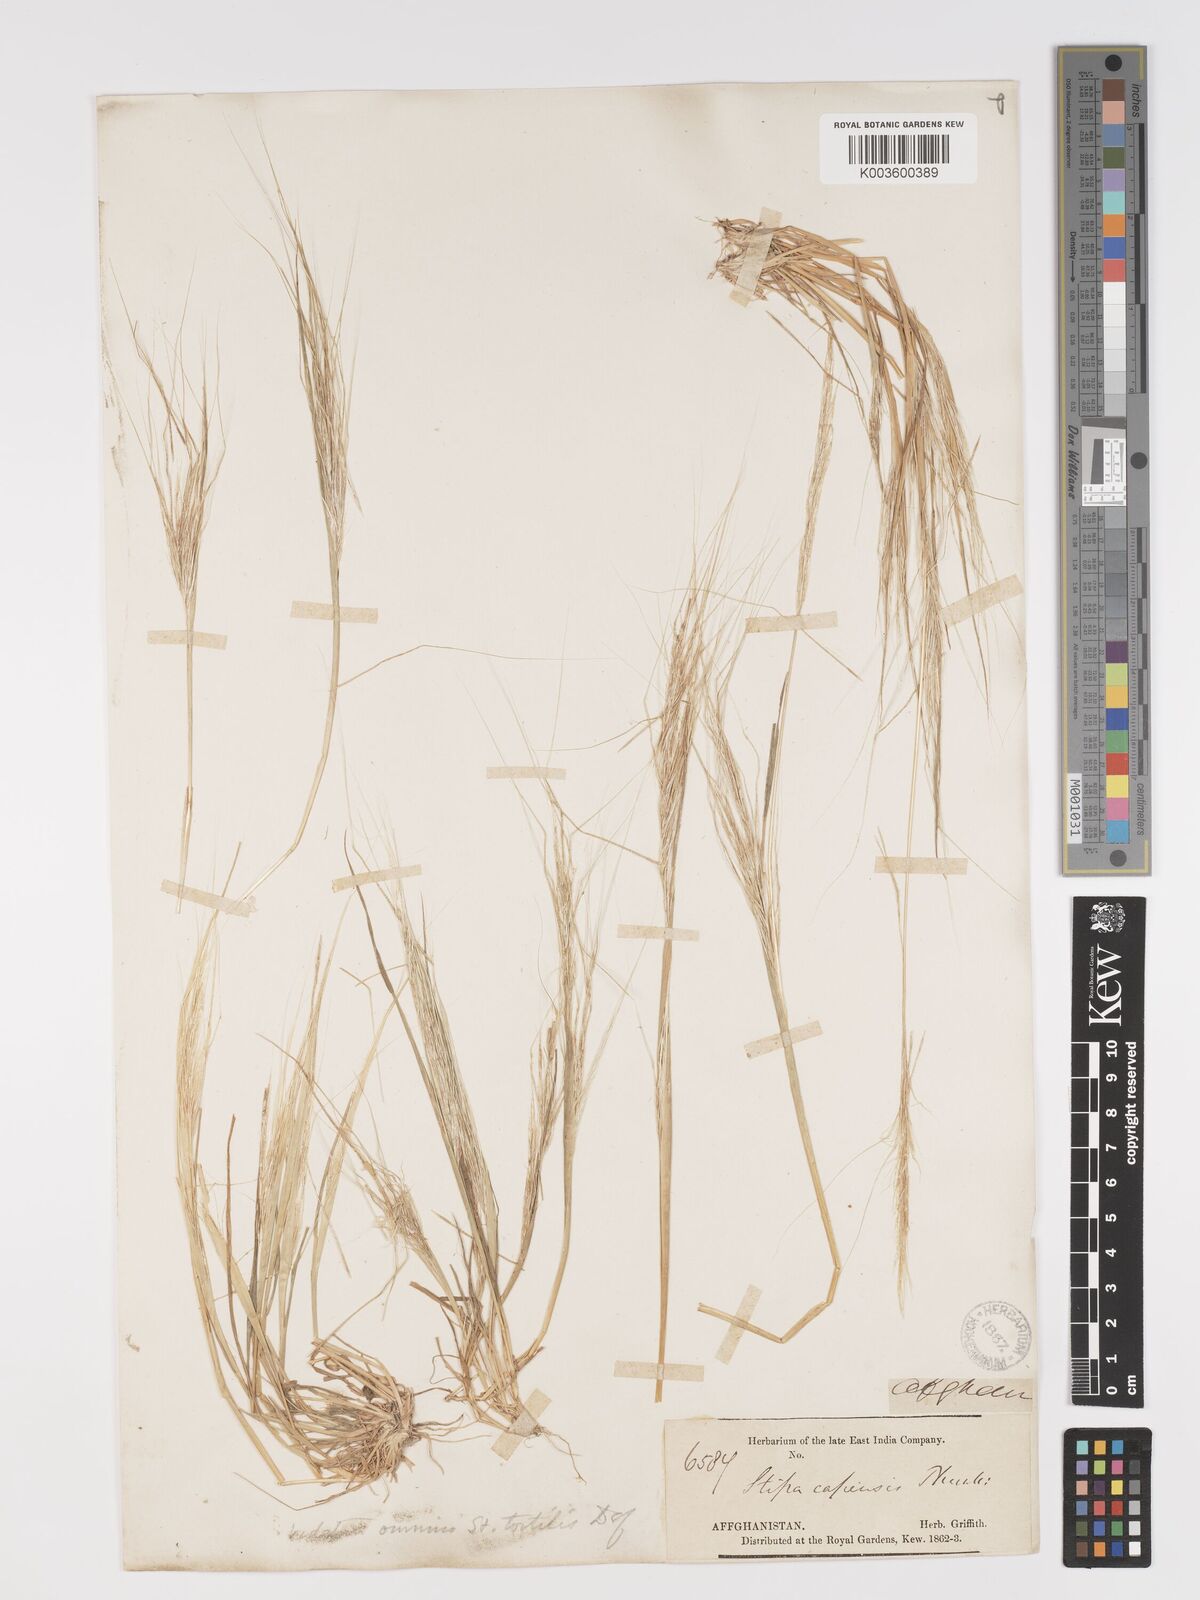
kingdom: Plantae
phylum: Tracheophyta
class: Liliopsida
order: Poales
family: Poaceae
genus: Stipellula
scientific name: Stipellula capensis
